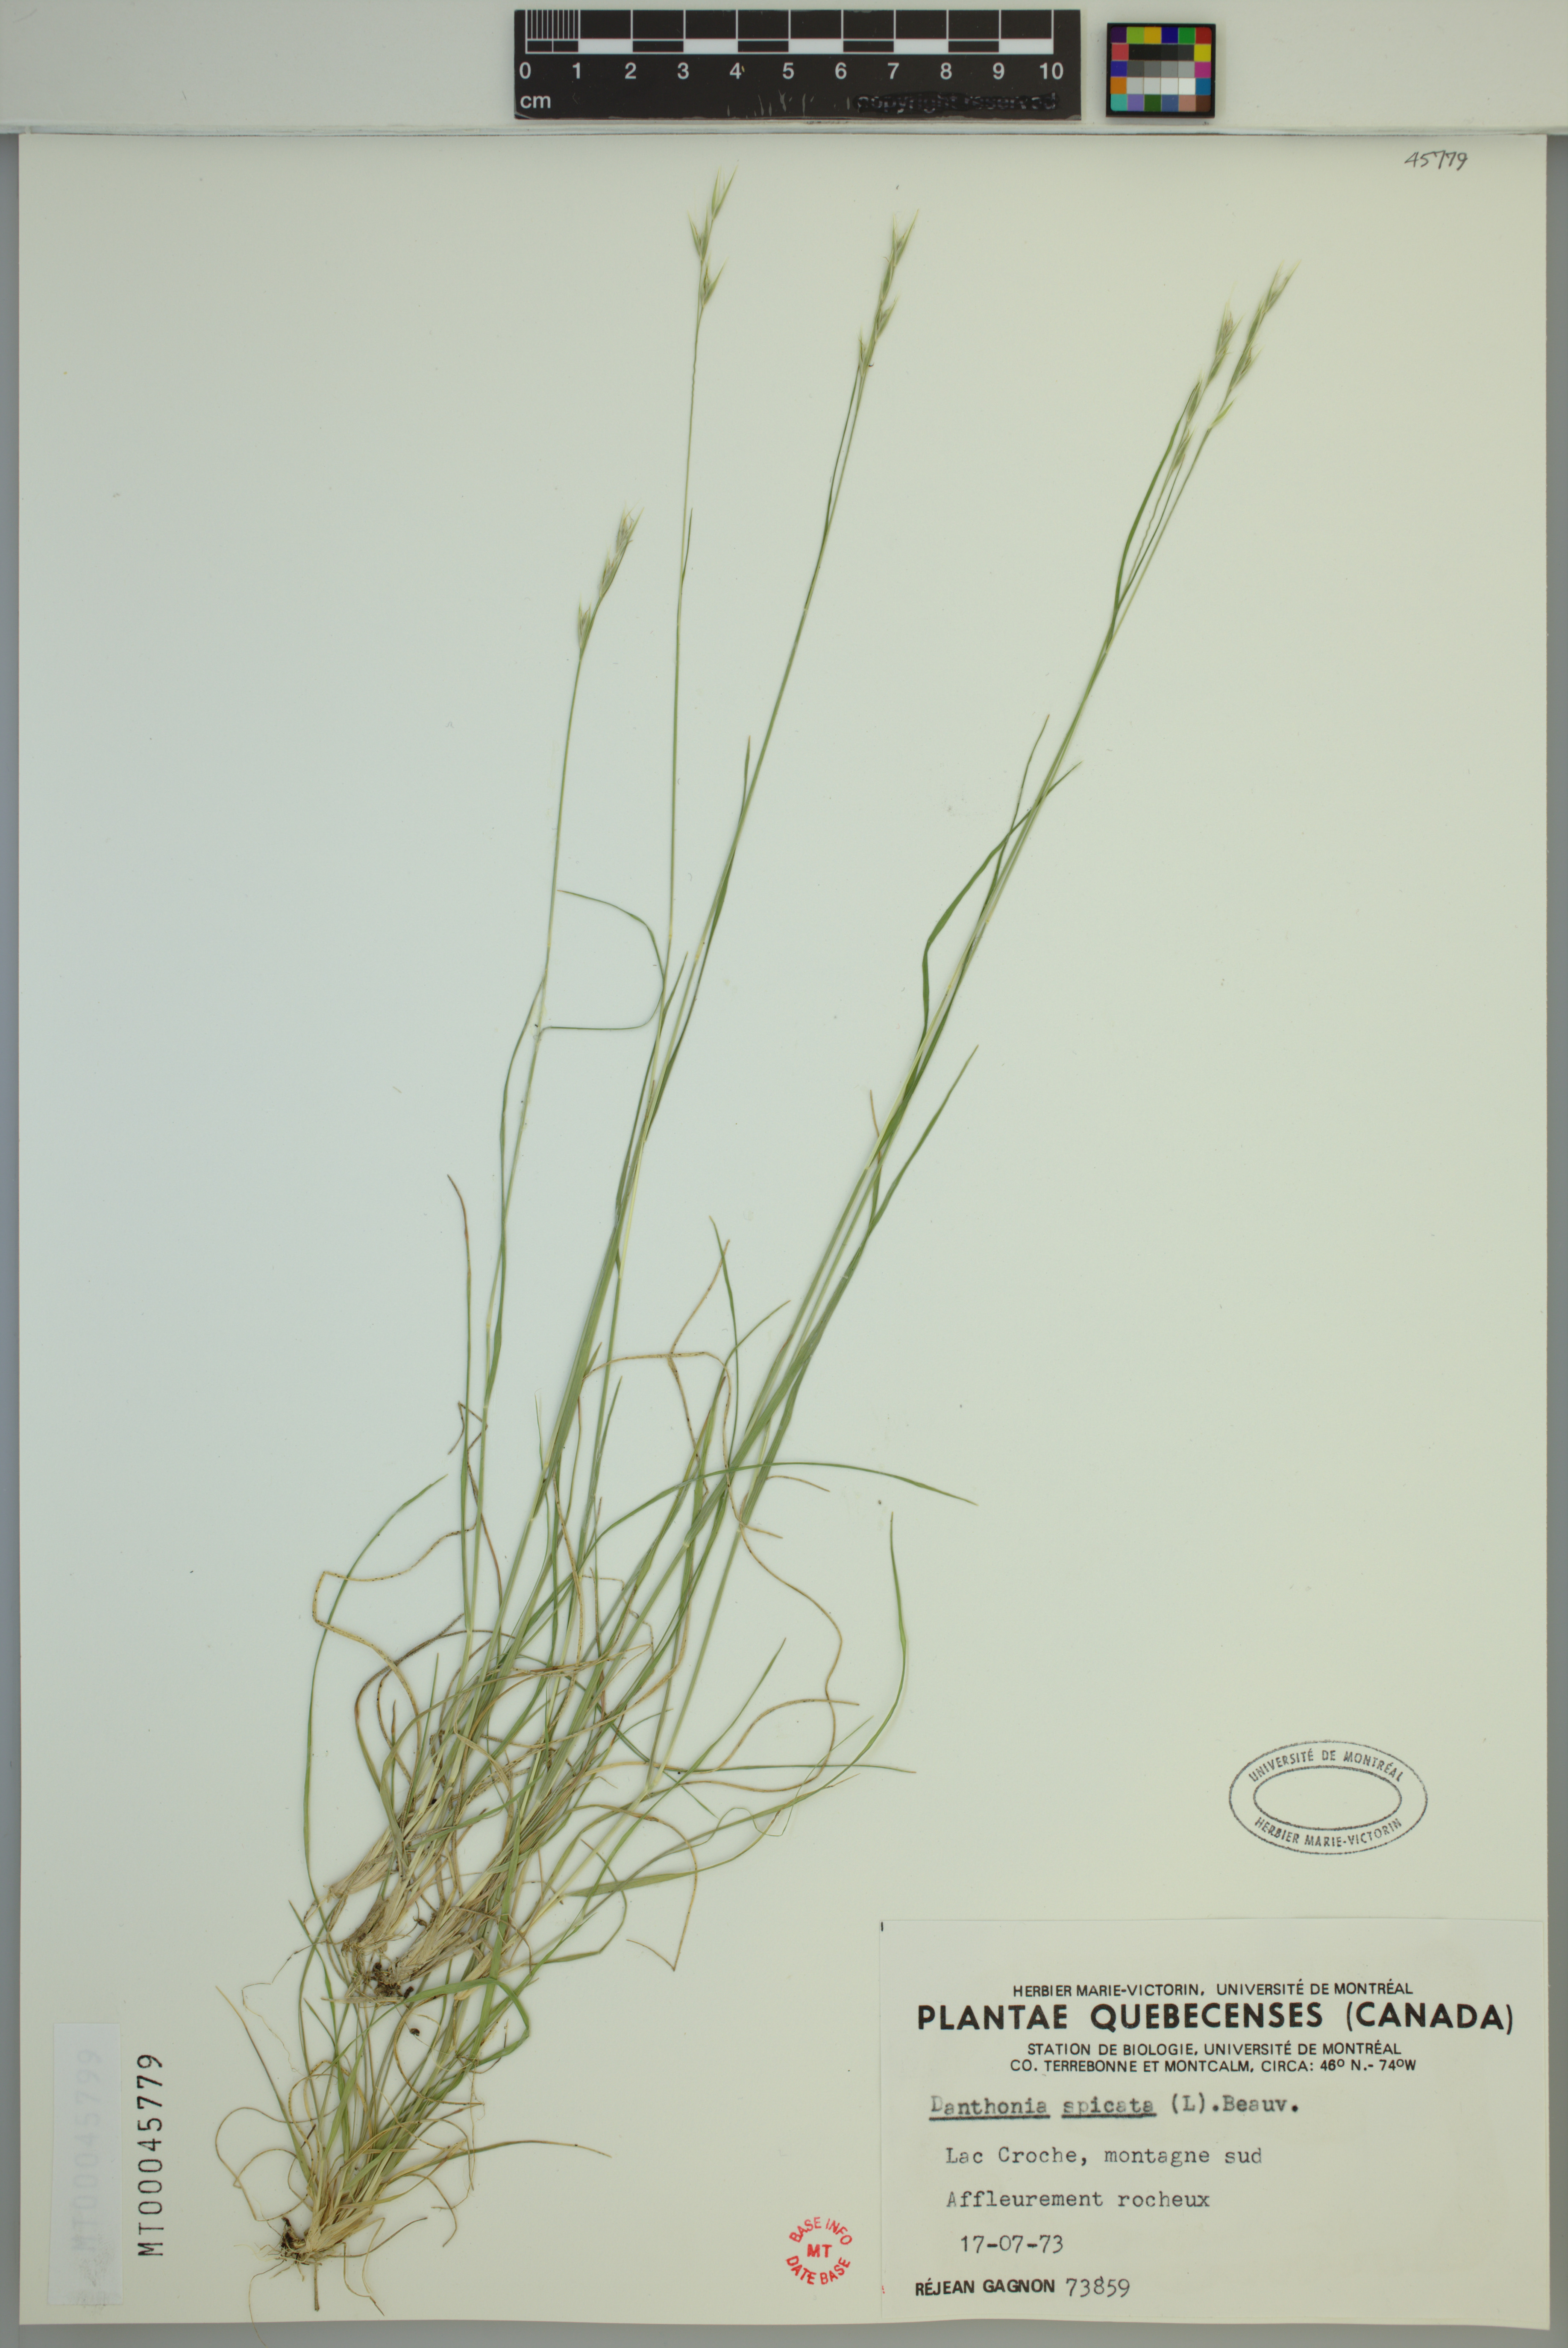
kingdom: Plantae
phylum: Tracheophyta
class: Liliopsida
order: Poales
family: Poaceae
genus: Danthonia
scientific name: Danthonia spicata
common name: Common wild oatgrass
